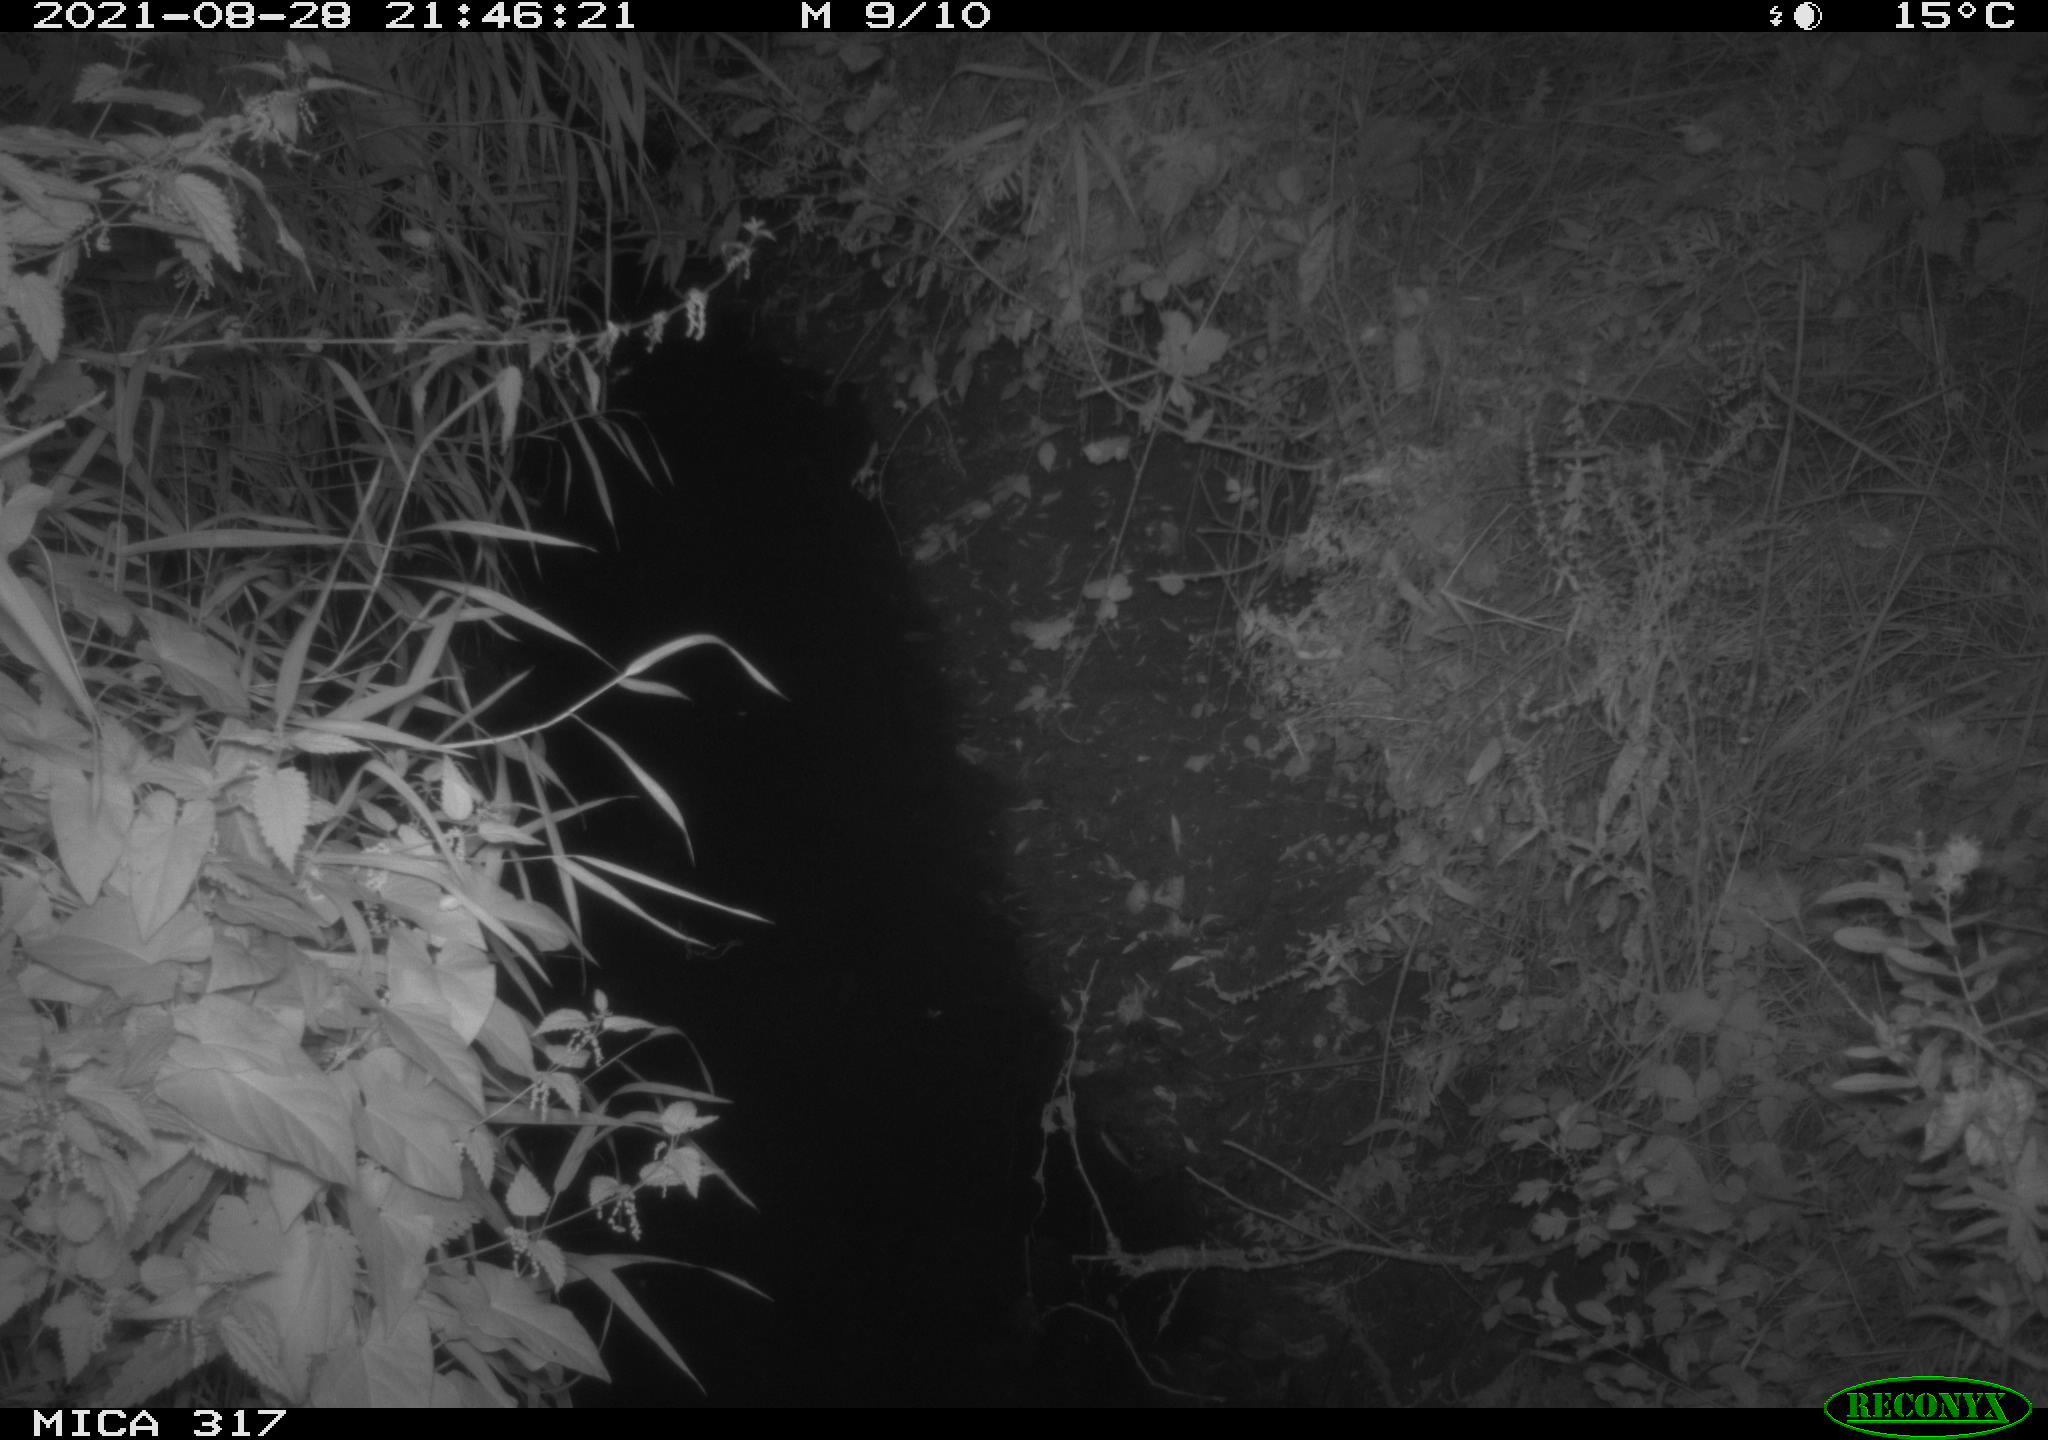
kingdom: Animalia
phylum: Chordata
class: Mammalia
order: Carnivora
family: Canidae
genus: Vulpes
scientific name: Vulpes vulpes
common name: Red fox
